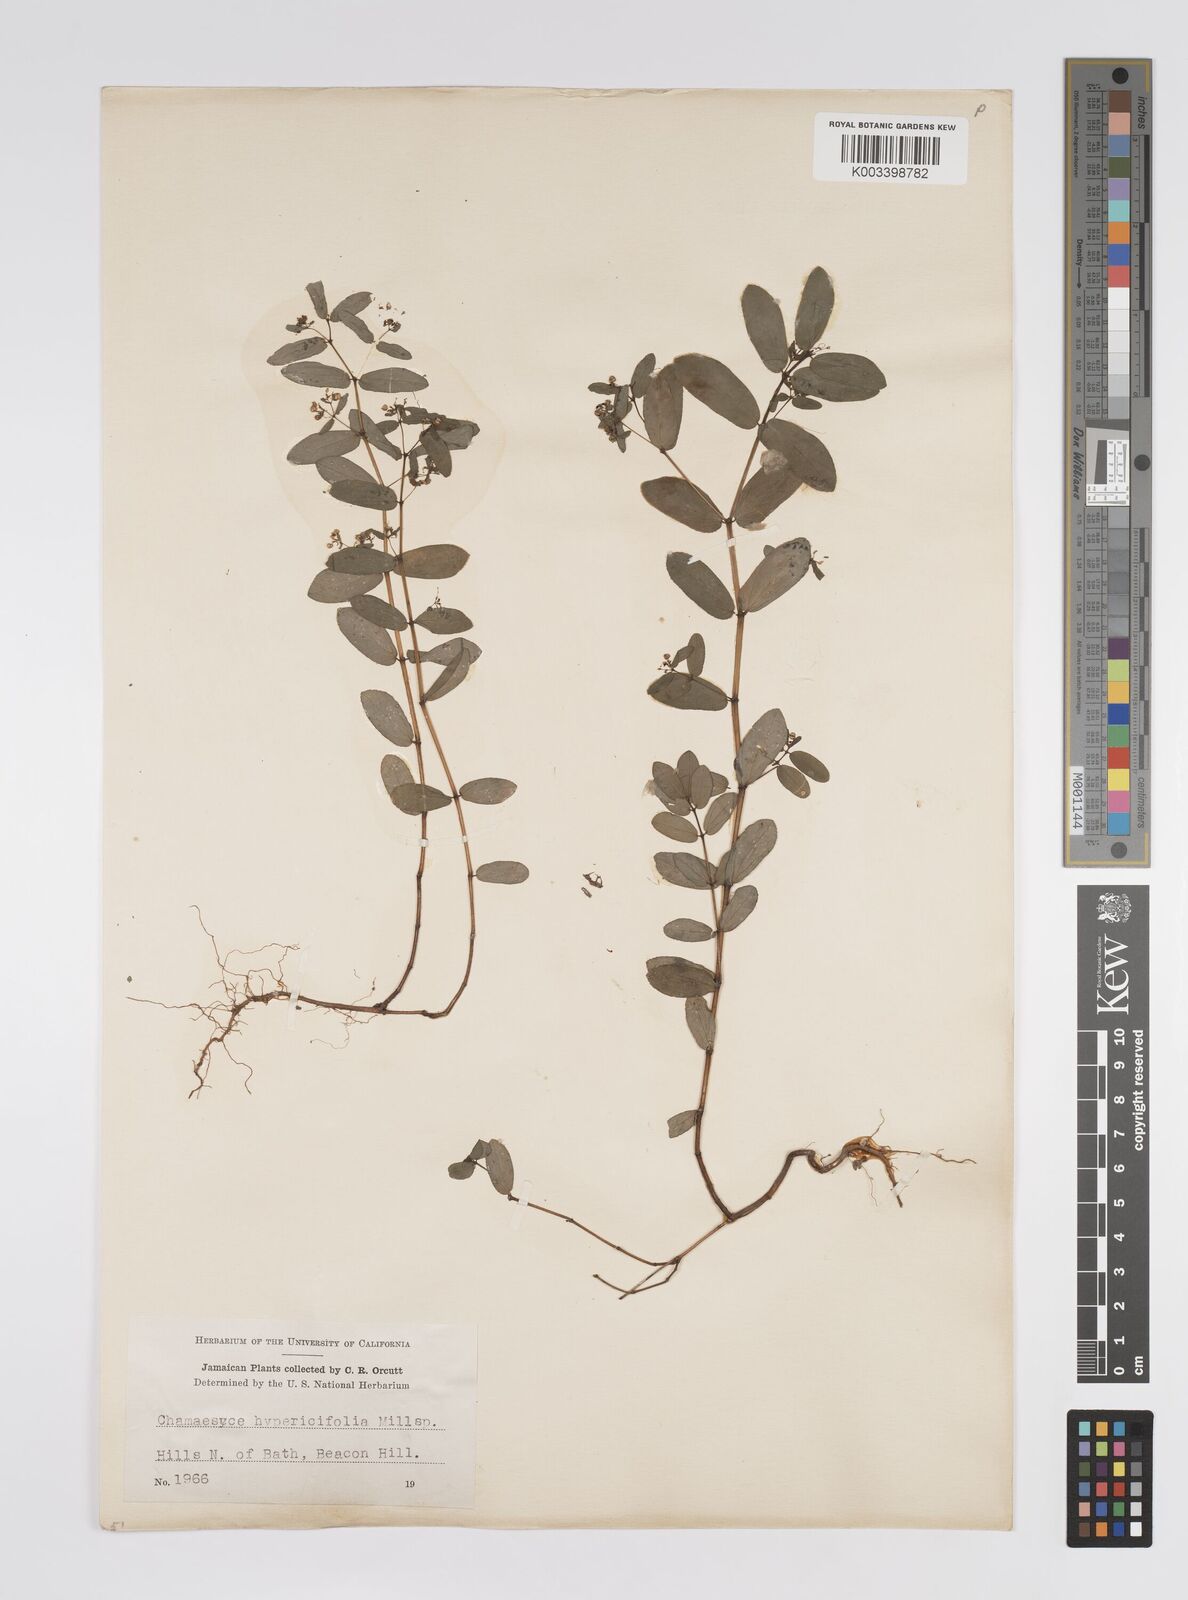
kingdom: Plantae
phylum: Tracheophyta
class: Magnoliopsida
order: Malpighiales
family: Euphorbiaceae
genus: Euphorbia
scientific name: Euphorbia hypericifolia
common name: Graceful sandmat
